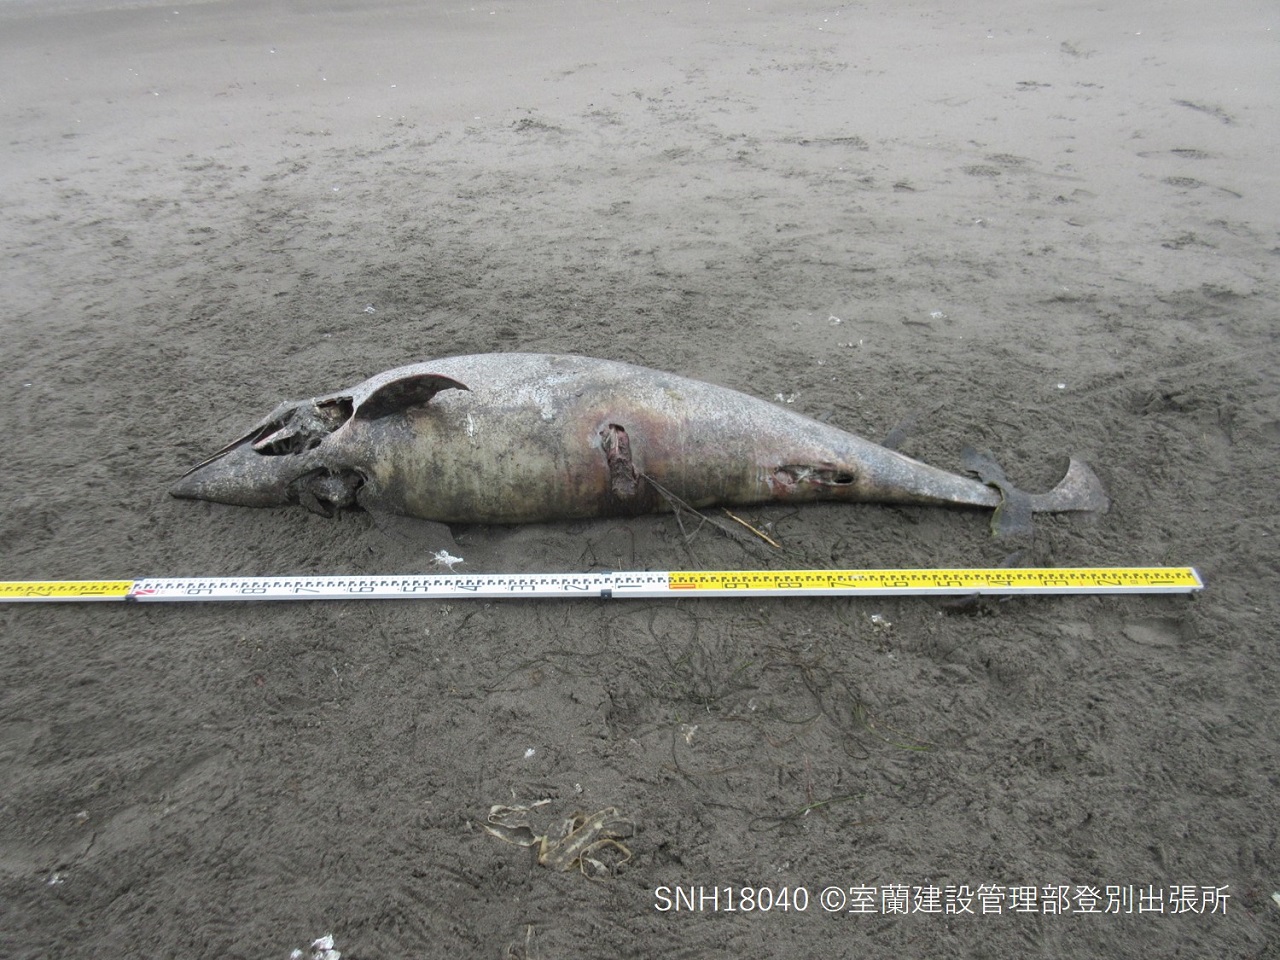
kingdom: Animalia
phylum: Chordata
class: Mammalia
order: Cetacea
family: Delphinidae
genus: Lagenorhynchus
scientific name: Lagenorhynchus obliquidens
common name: Pacific white-sided dolphin
